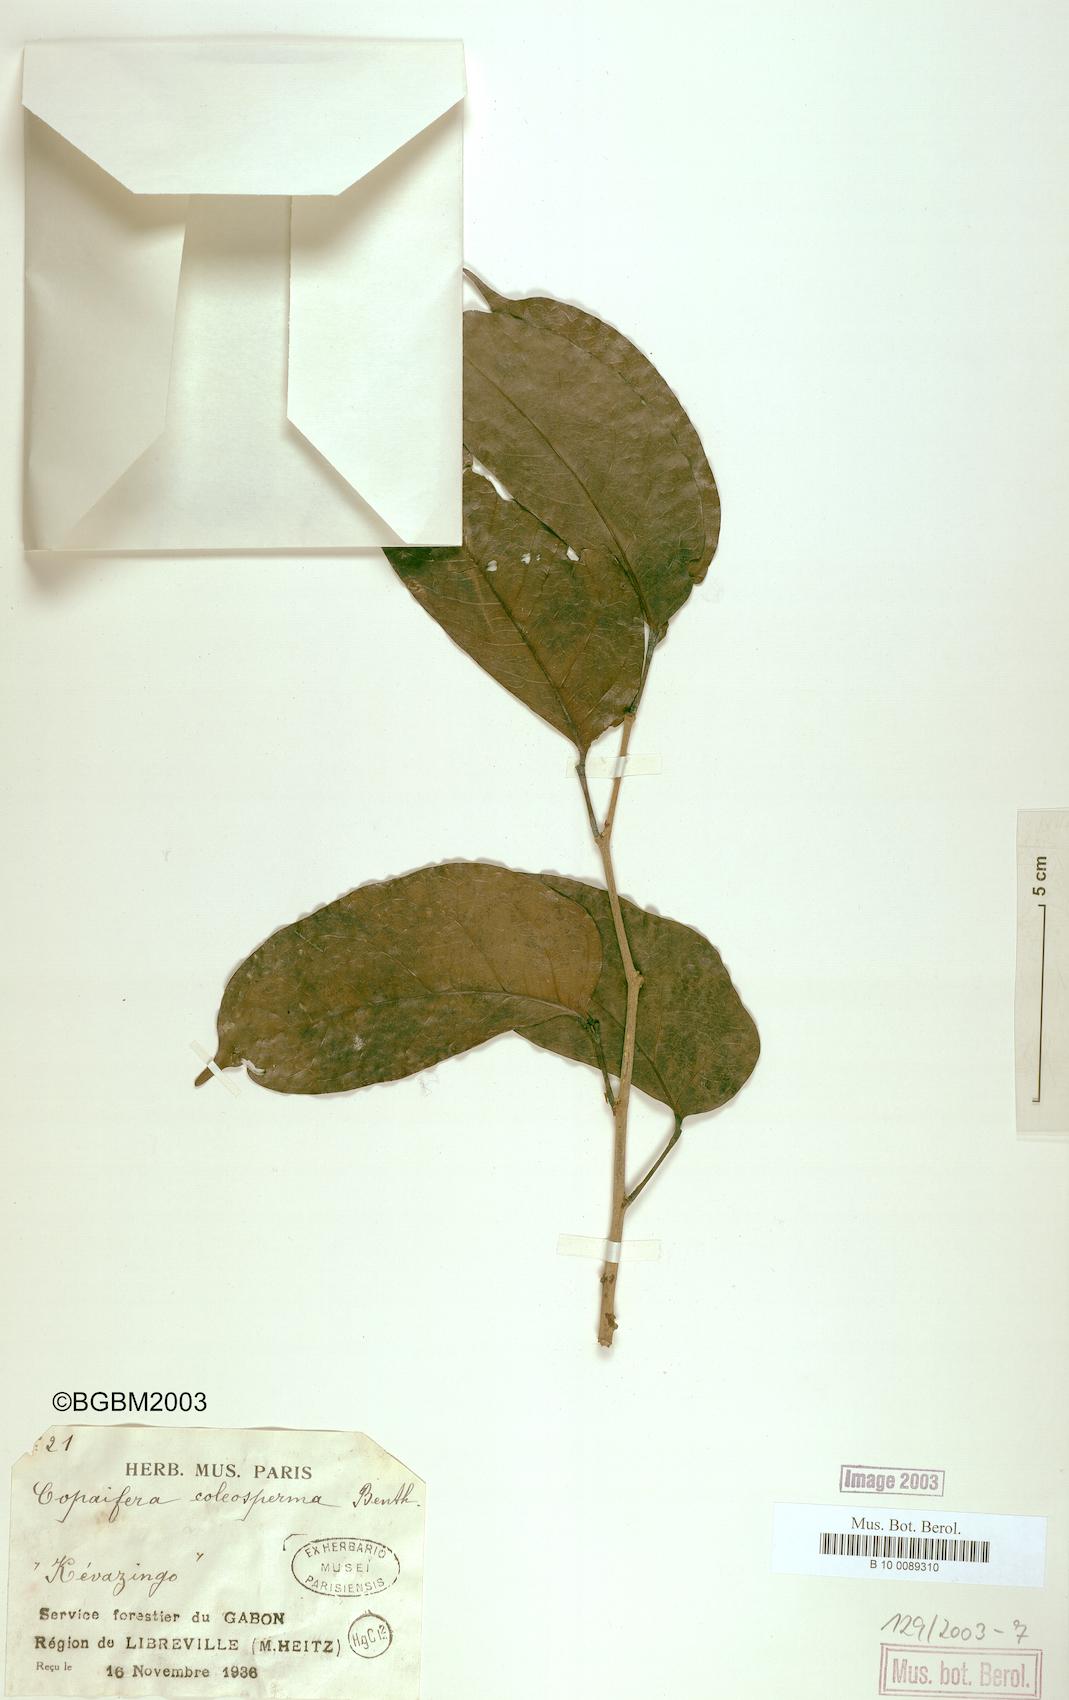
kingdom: Plantae
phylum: Tracheophyta
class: Magnoliopsida
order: Fabales
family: Fabaceae
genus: Guibourtia
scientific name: Guibourtia coleosperma
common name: African rosewoood
